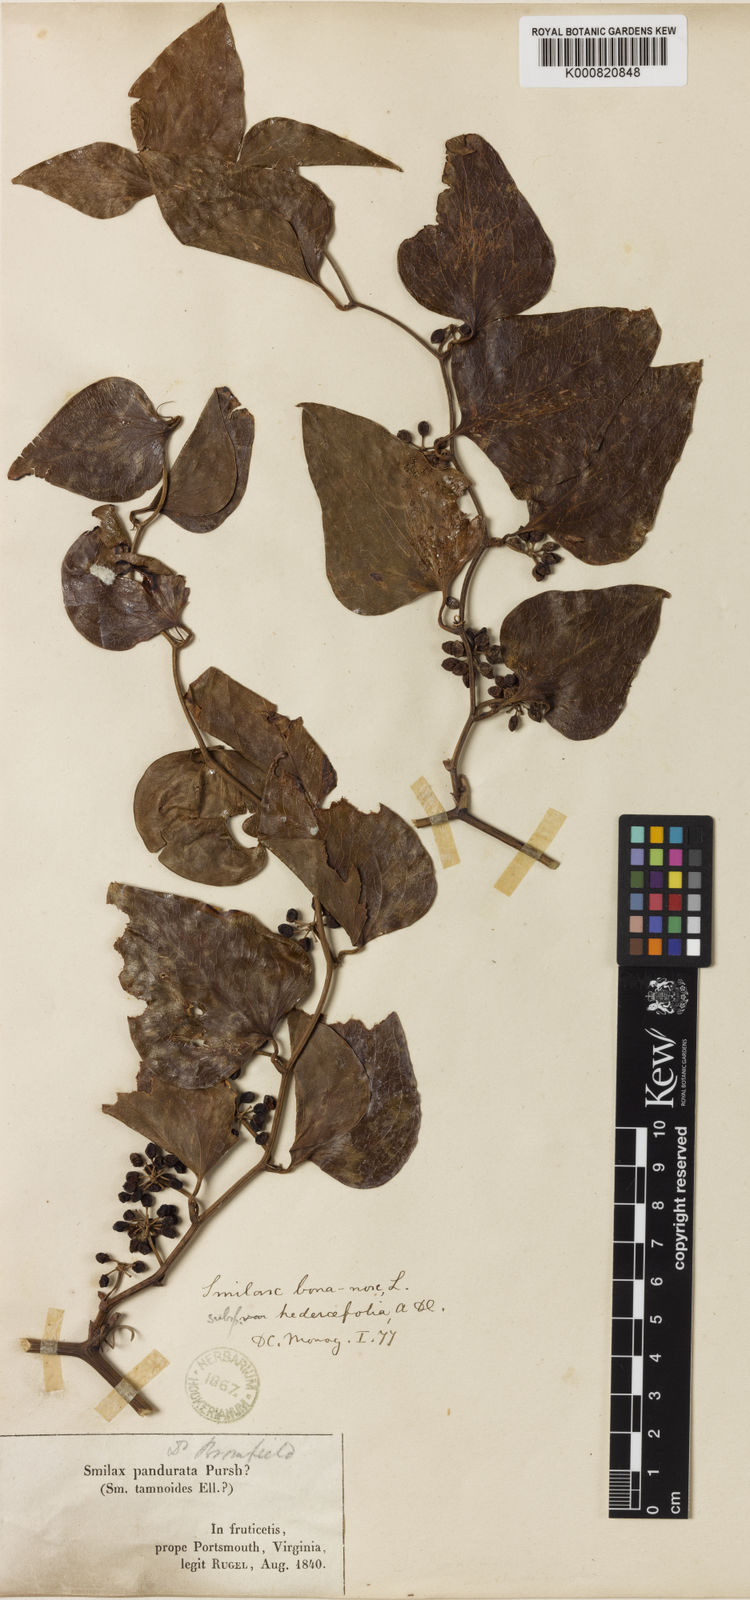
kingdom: Plantae
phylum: Tracheophyta
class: Liliopsida
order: Liliales
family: Smilacaceae
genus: Smilax
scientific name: Smilax bona-nox
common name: Catbrier
